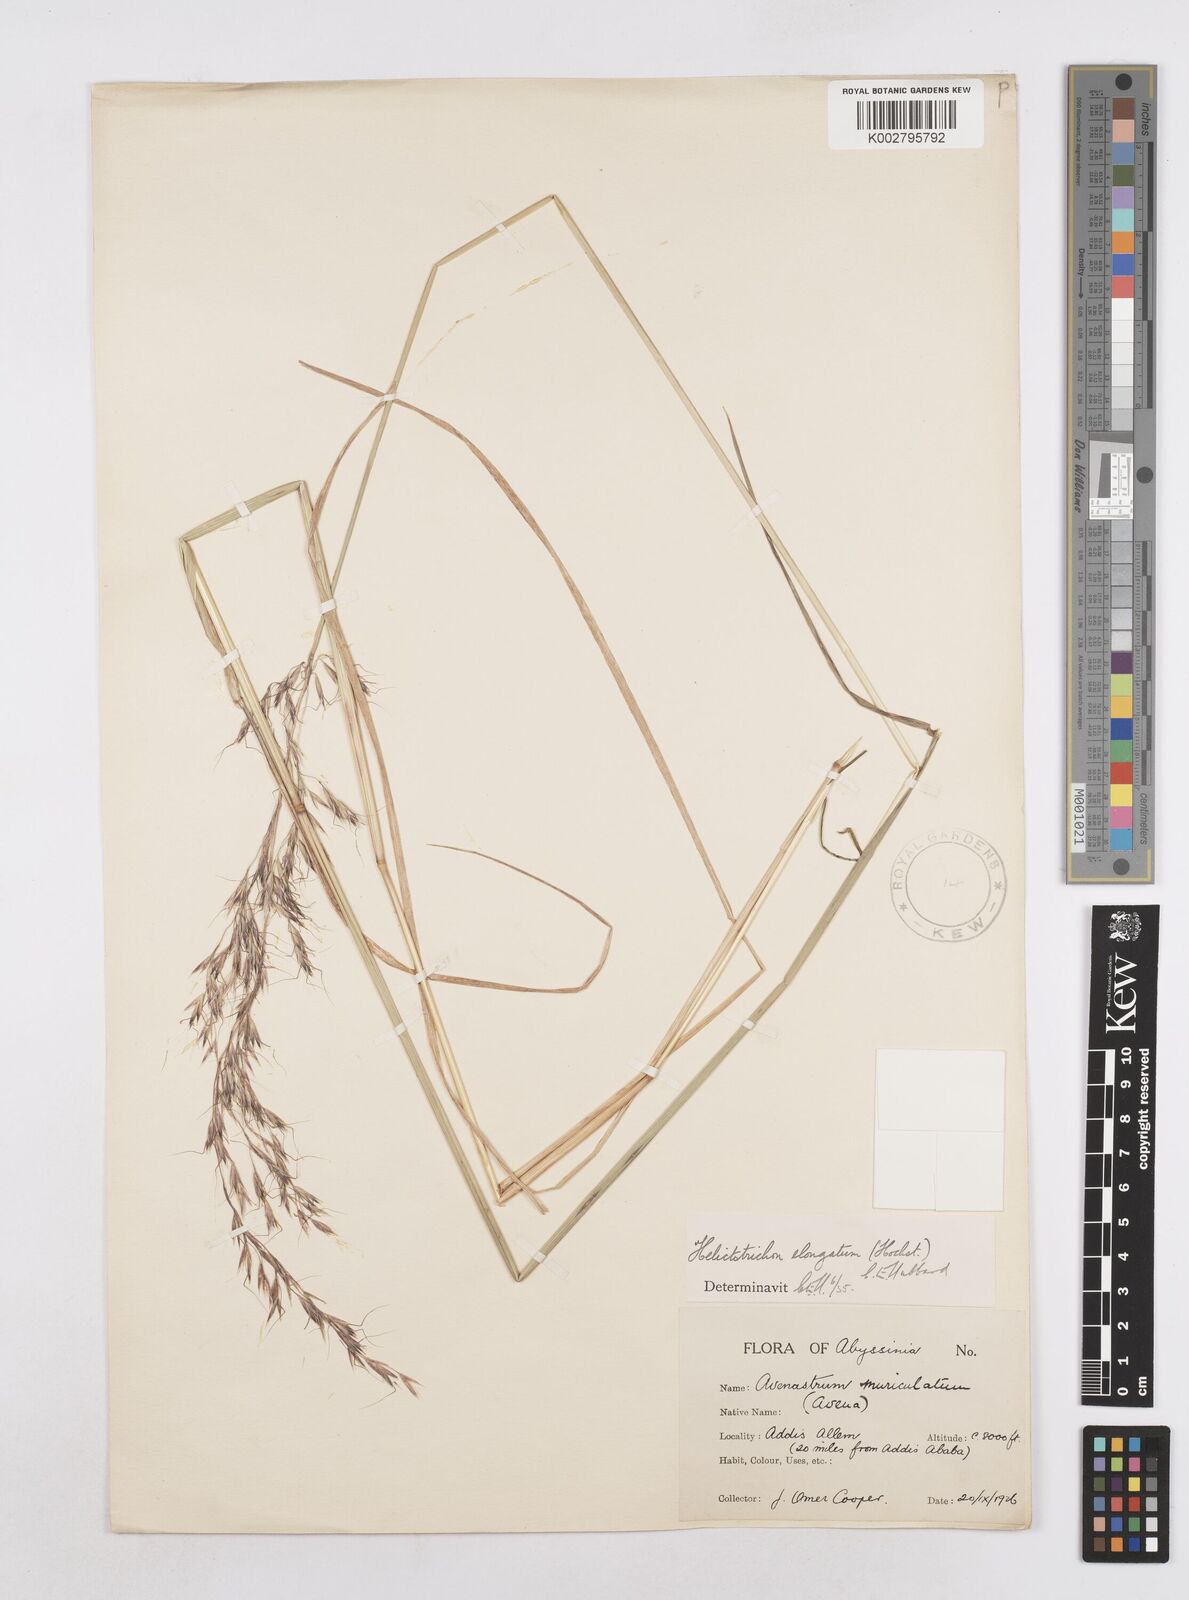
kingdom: Plantae
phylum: Tracheophyta
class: Liliopsida
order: Poales
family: Poaceae
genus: Trisetopsis
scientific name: Trisetopsis elongata
